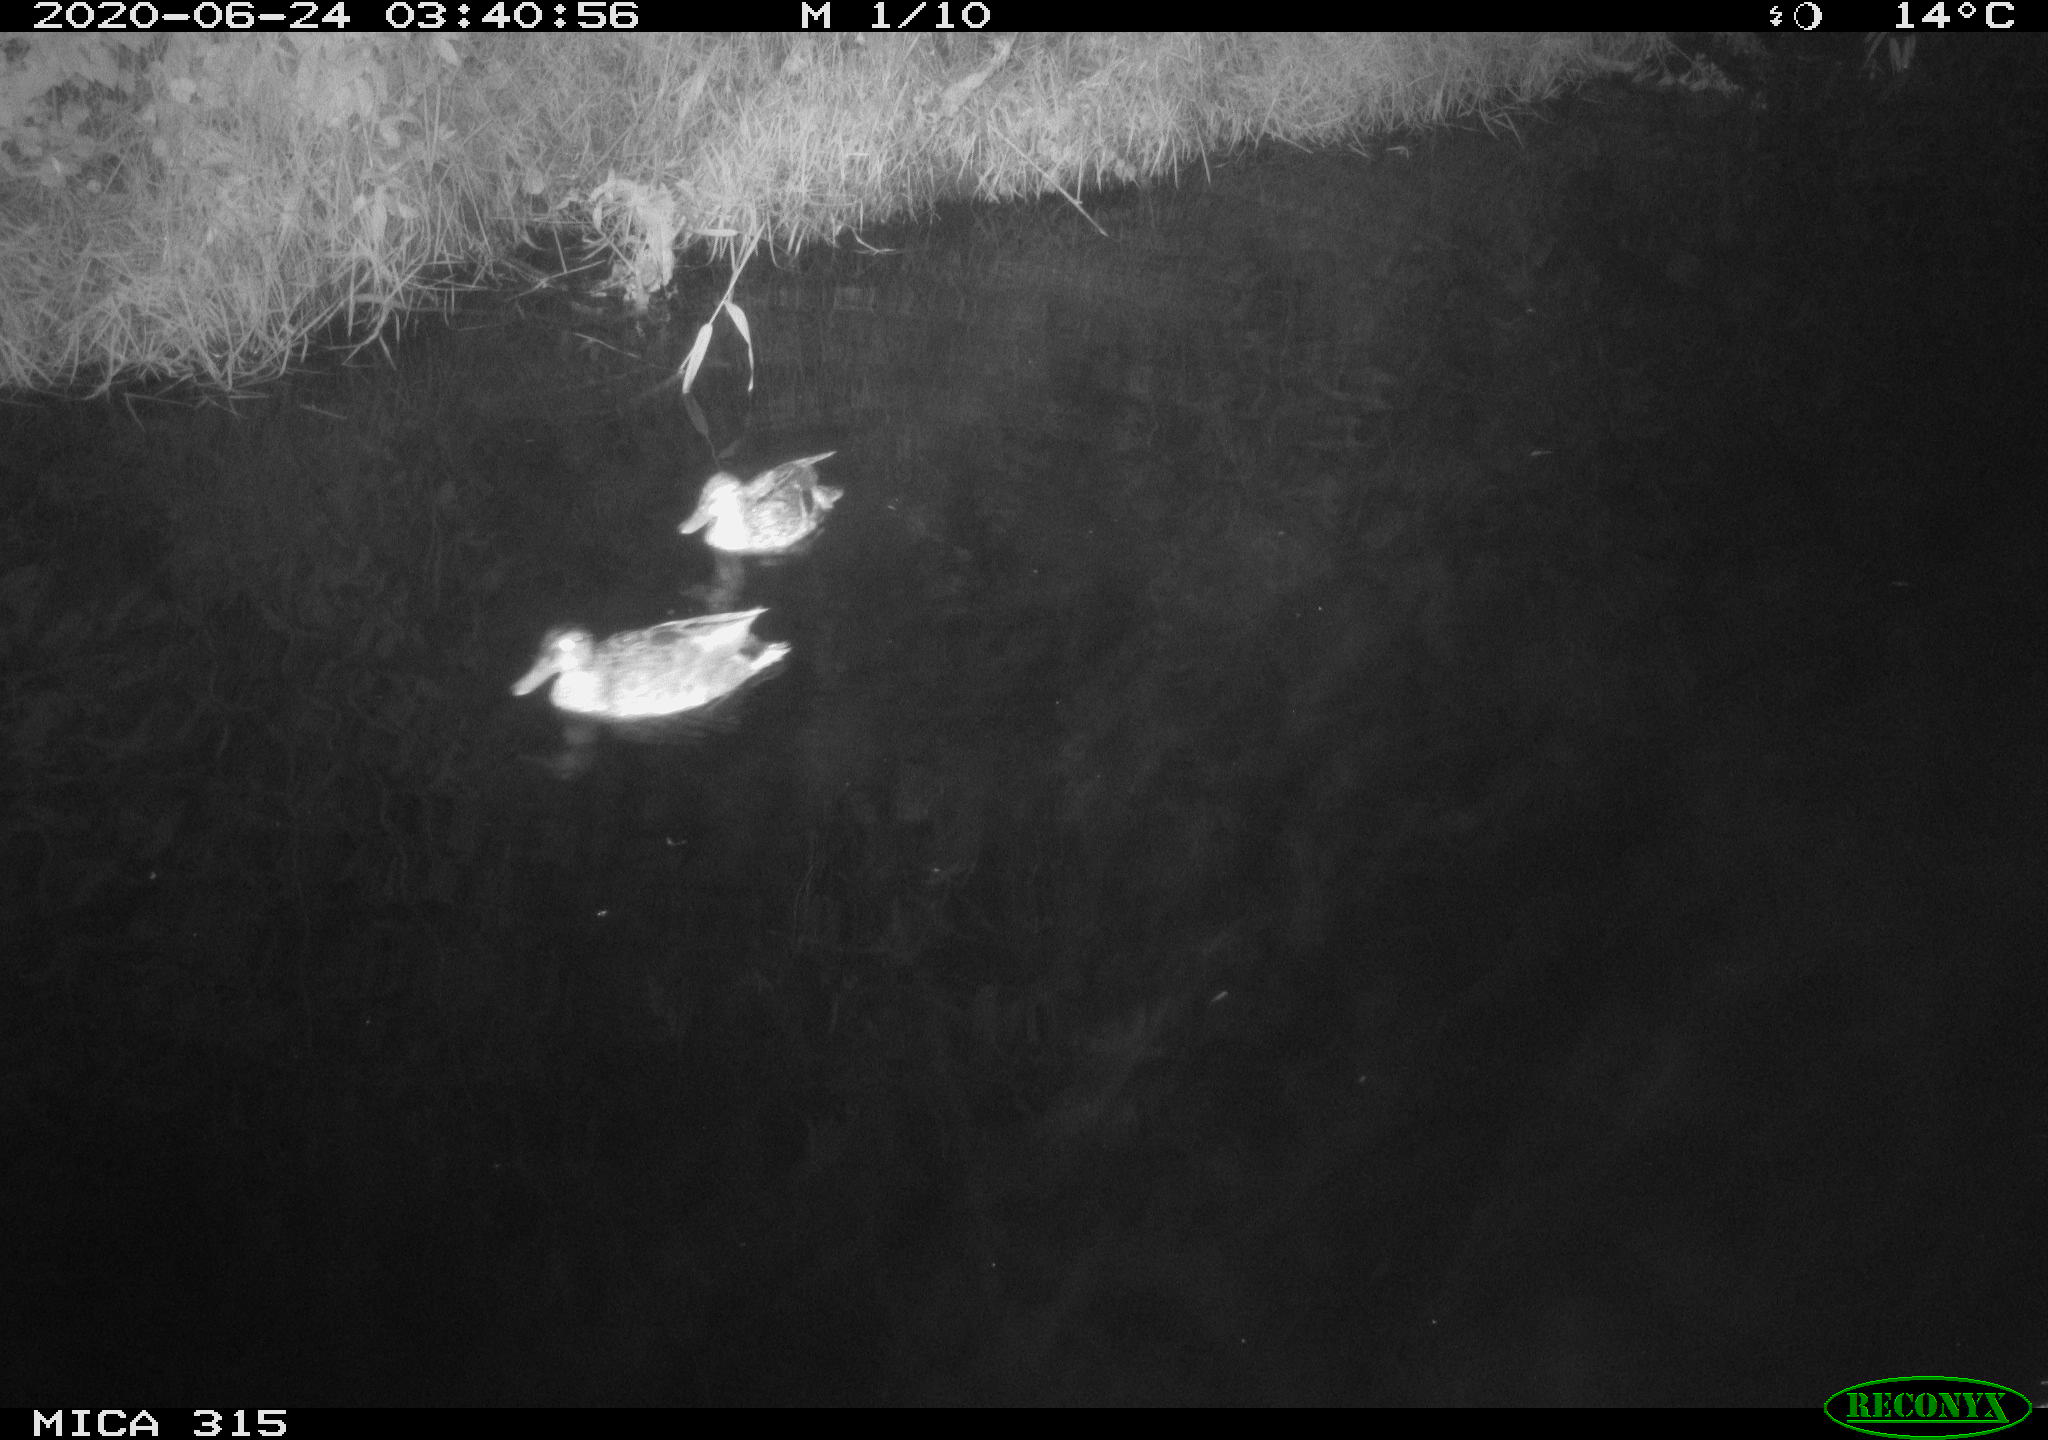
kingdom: Animalia
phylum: Chordata
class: Aves
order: Anseriformes
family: Anatidae
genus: Anas
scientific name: Anas platyrhynchos
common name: Mallard
